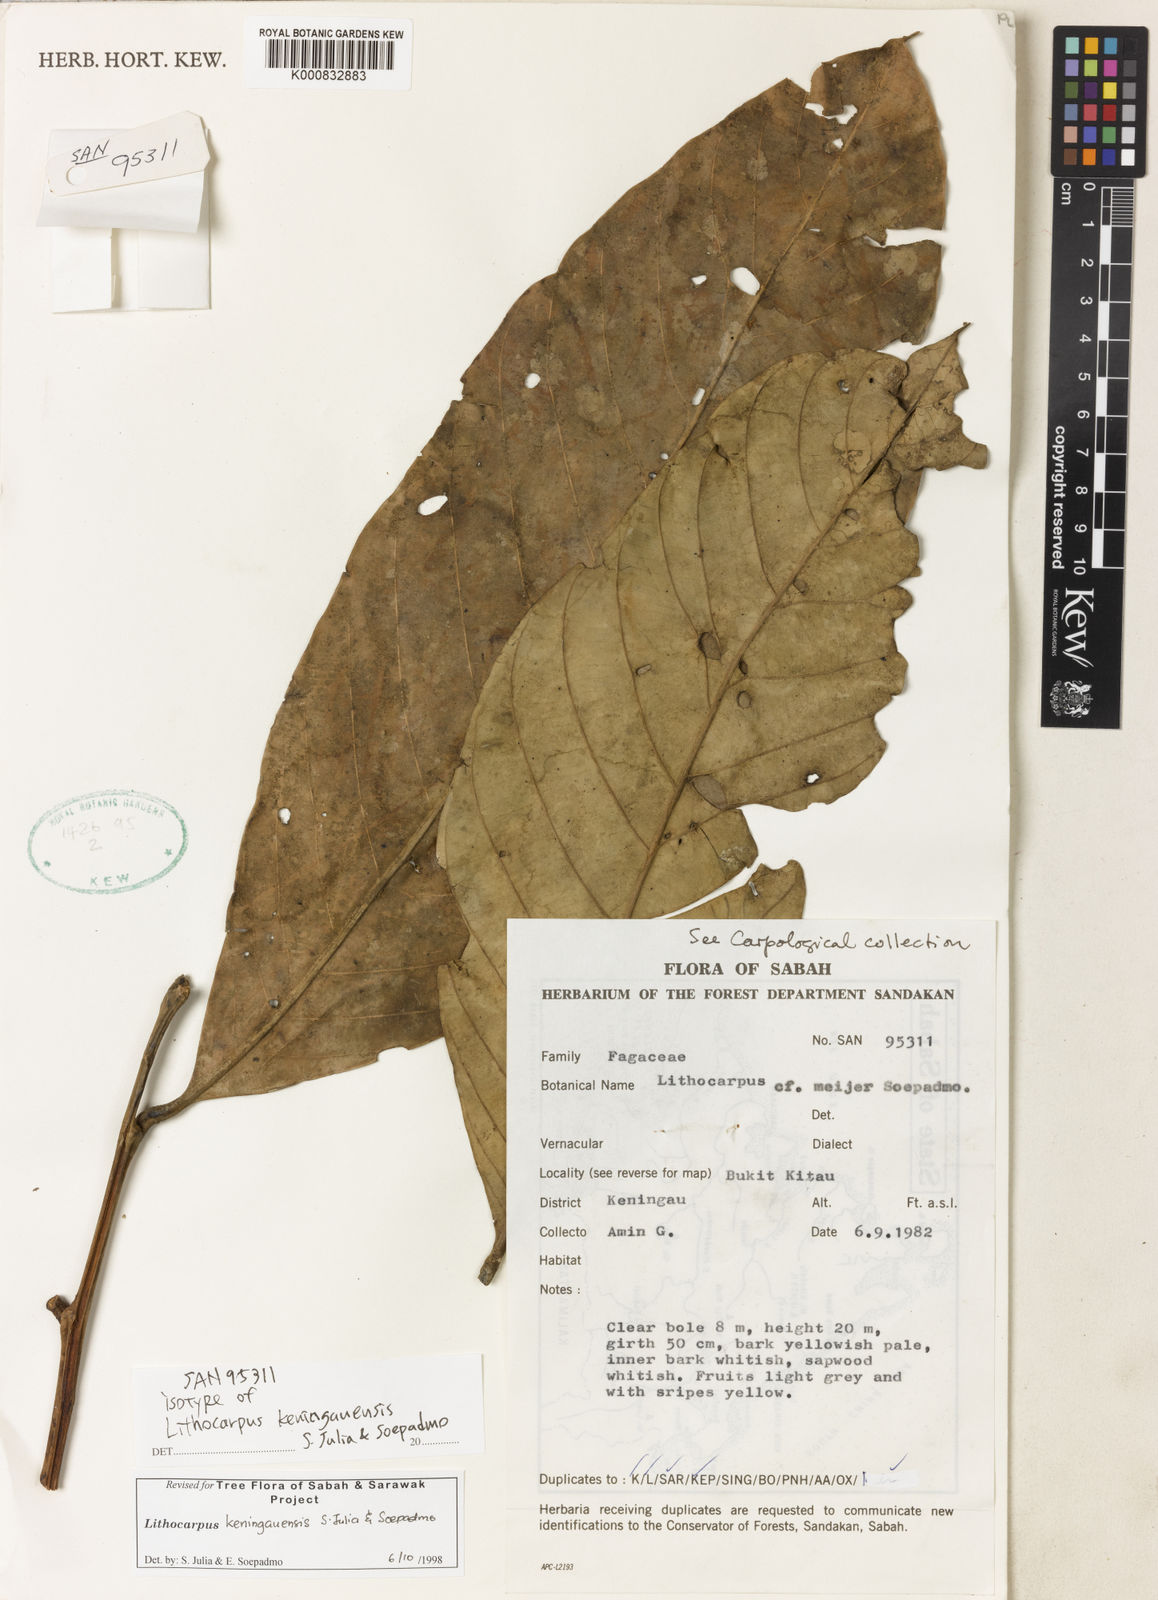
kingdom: Plantae
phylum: Tracheophyta
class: Magnoliopsida
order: Fagales
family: Fagaceae
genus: Lithocarpus
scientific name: Lithocarpus keningauensis
